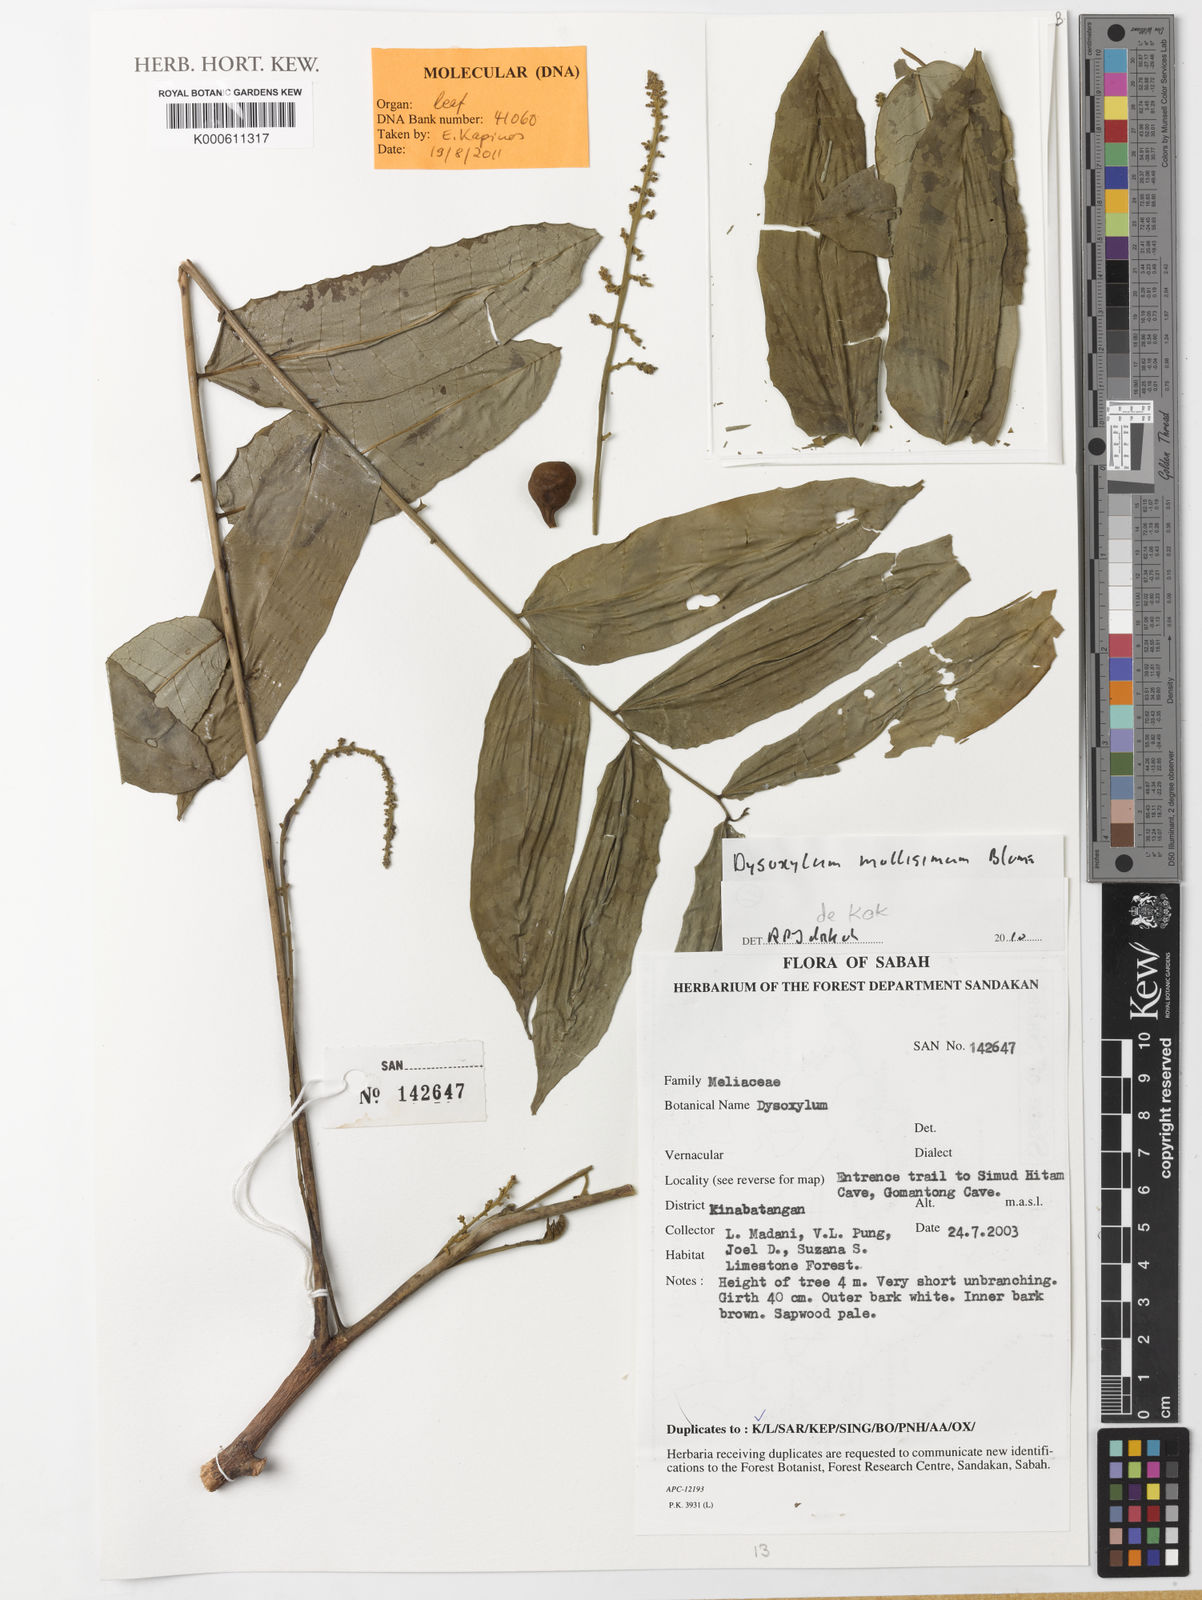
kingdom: Plantae
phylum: Tracheophyta
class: Magnoliopsida
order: Sapindales
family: Meliaceae
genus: Dysoxylum
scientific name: Dysoxylum
